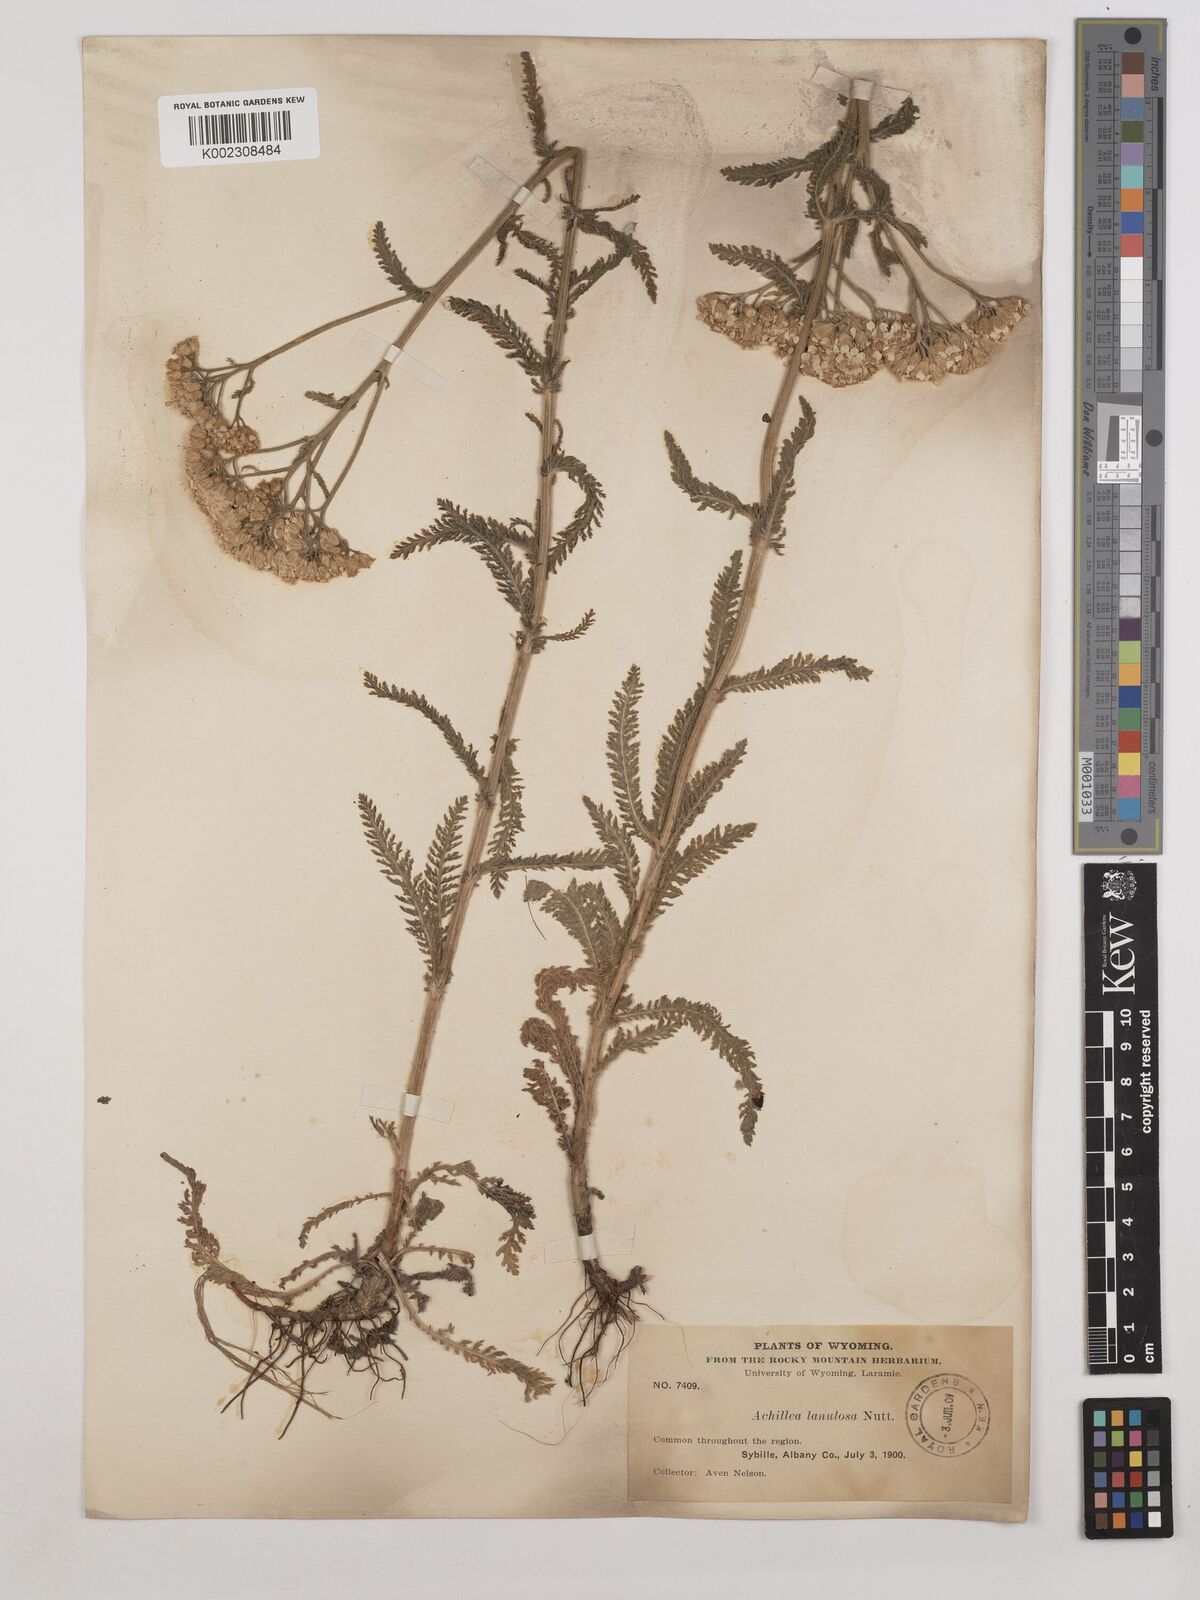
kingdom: Plantae
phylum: Tracheophyta
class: Magnoliopsida
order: Asterales
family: Asteraceae
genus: Achillea
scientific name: Achillea millefolium
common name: Yarrow
